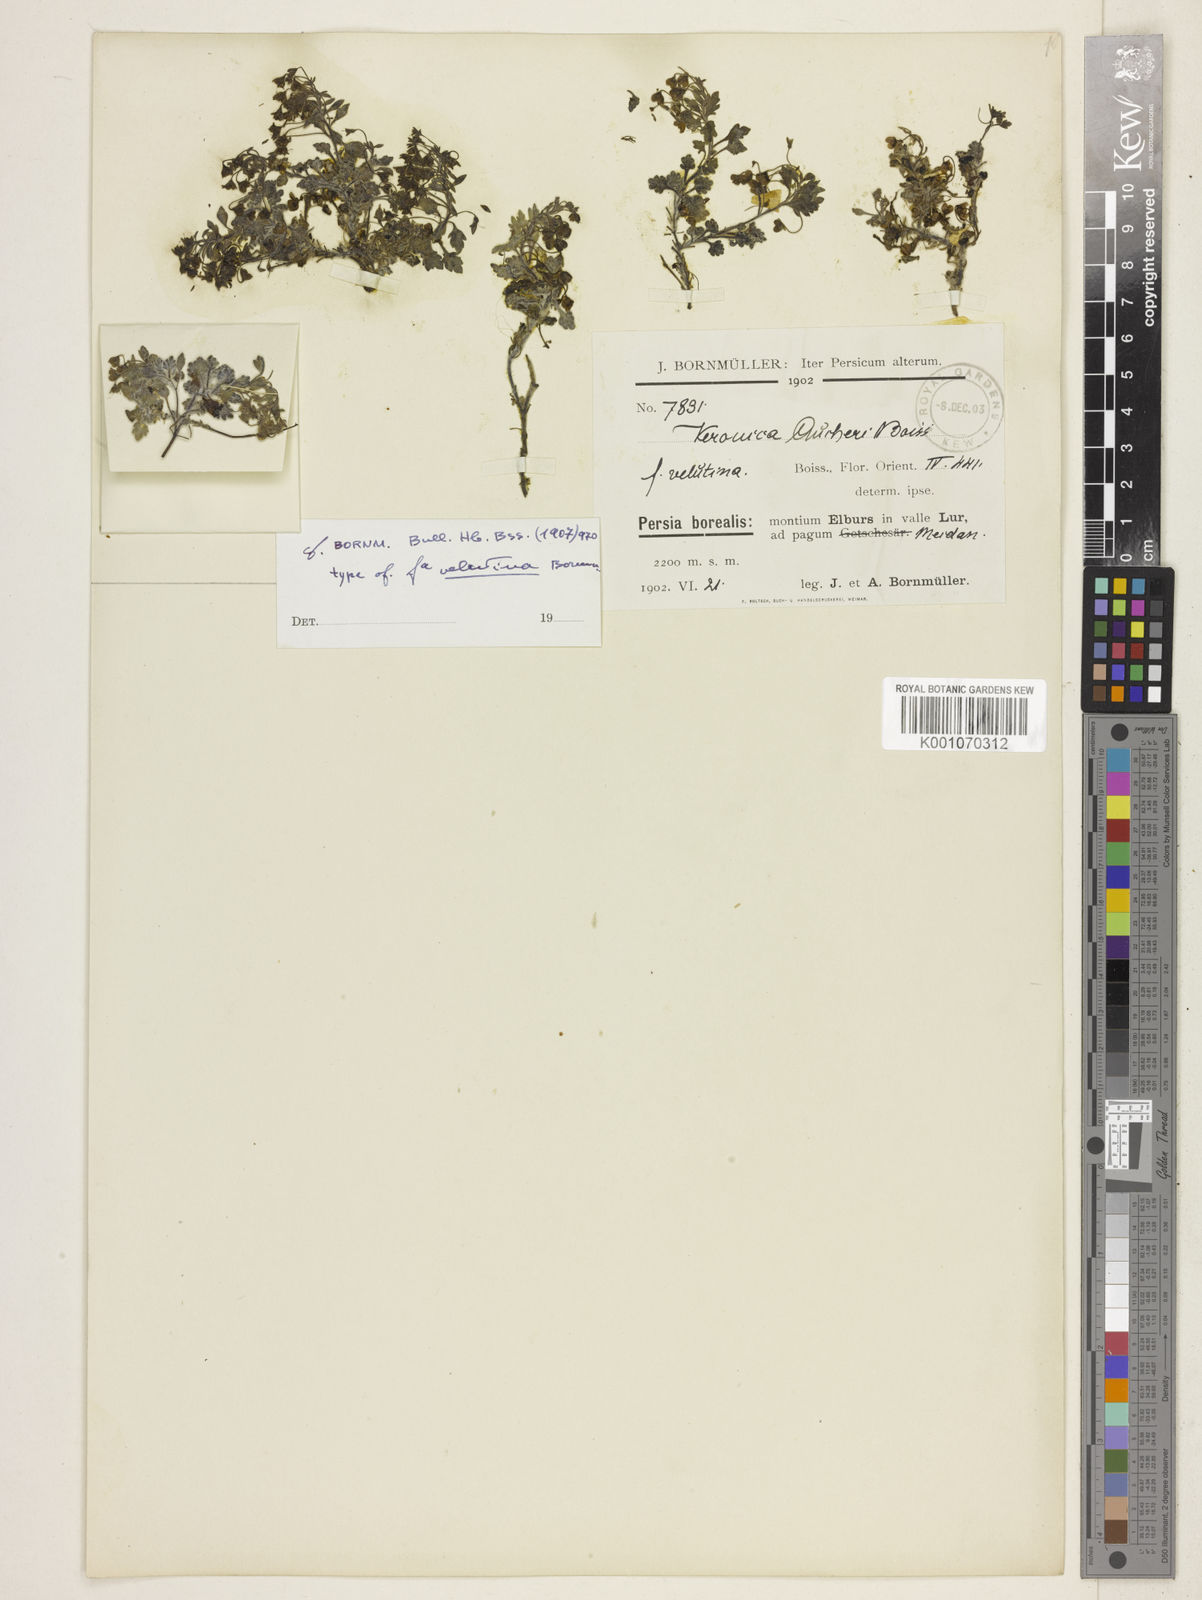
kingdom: Plantae
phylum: Tracheophyta
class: Magnoliopsida
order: Lamiales
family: Plantaginaceae
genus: Veronica
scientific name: Veronica
